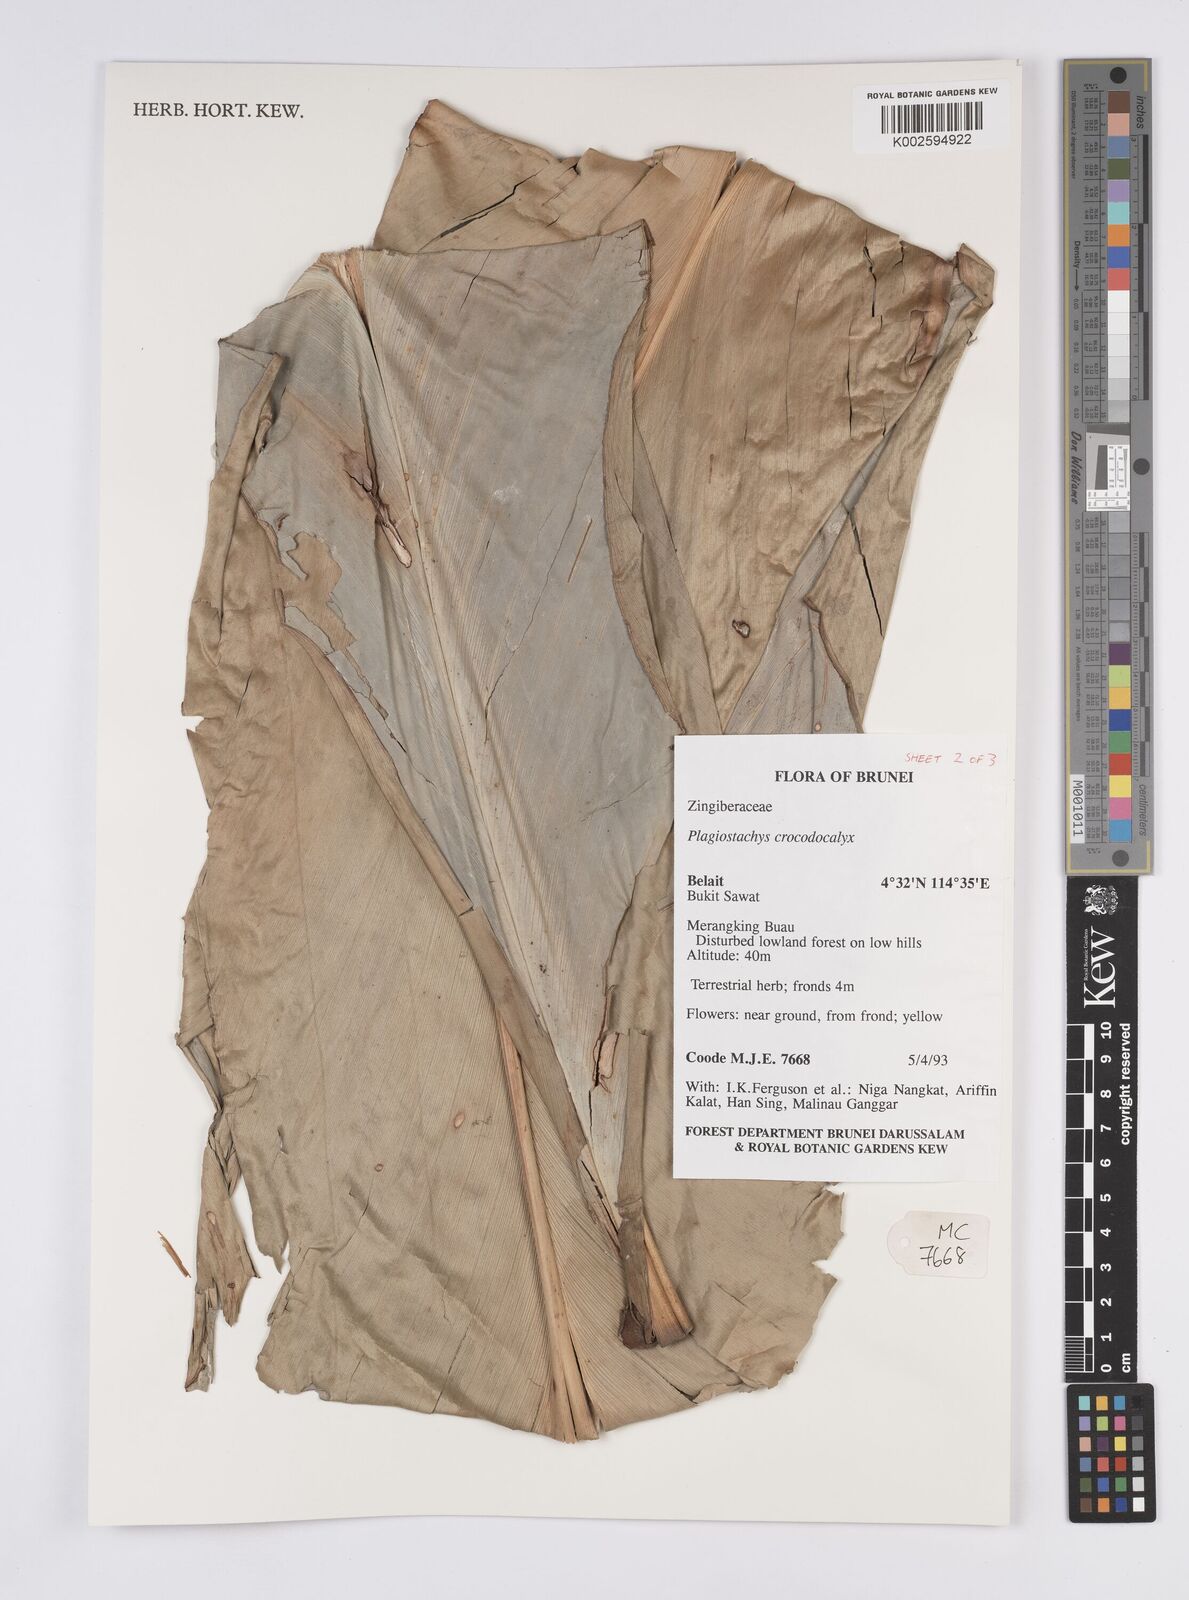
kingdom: Plantae
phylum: Tracheophyta
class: Liliopsida
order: Zingiberales
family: Zingiberaceae
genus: Plagiostachys
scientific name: Plagiostachys crocydocalyx
